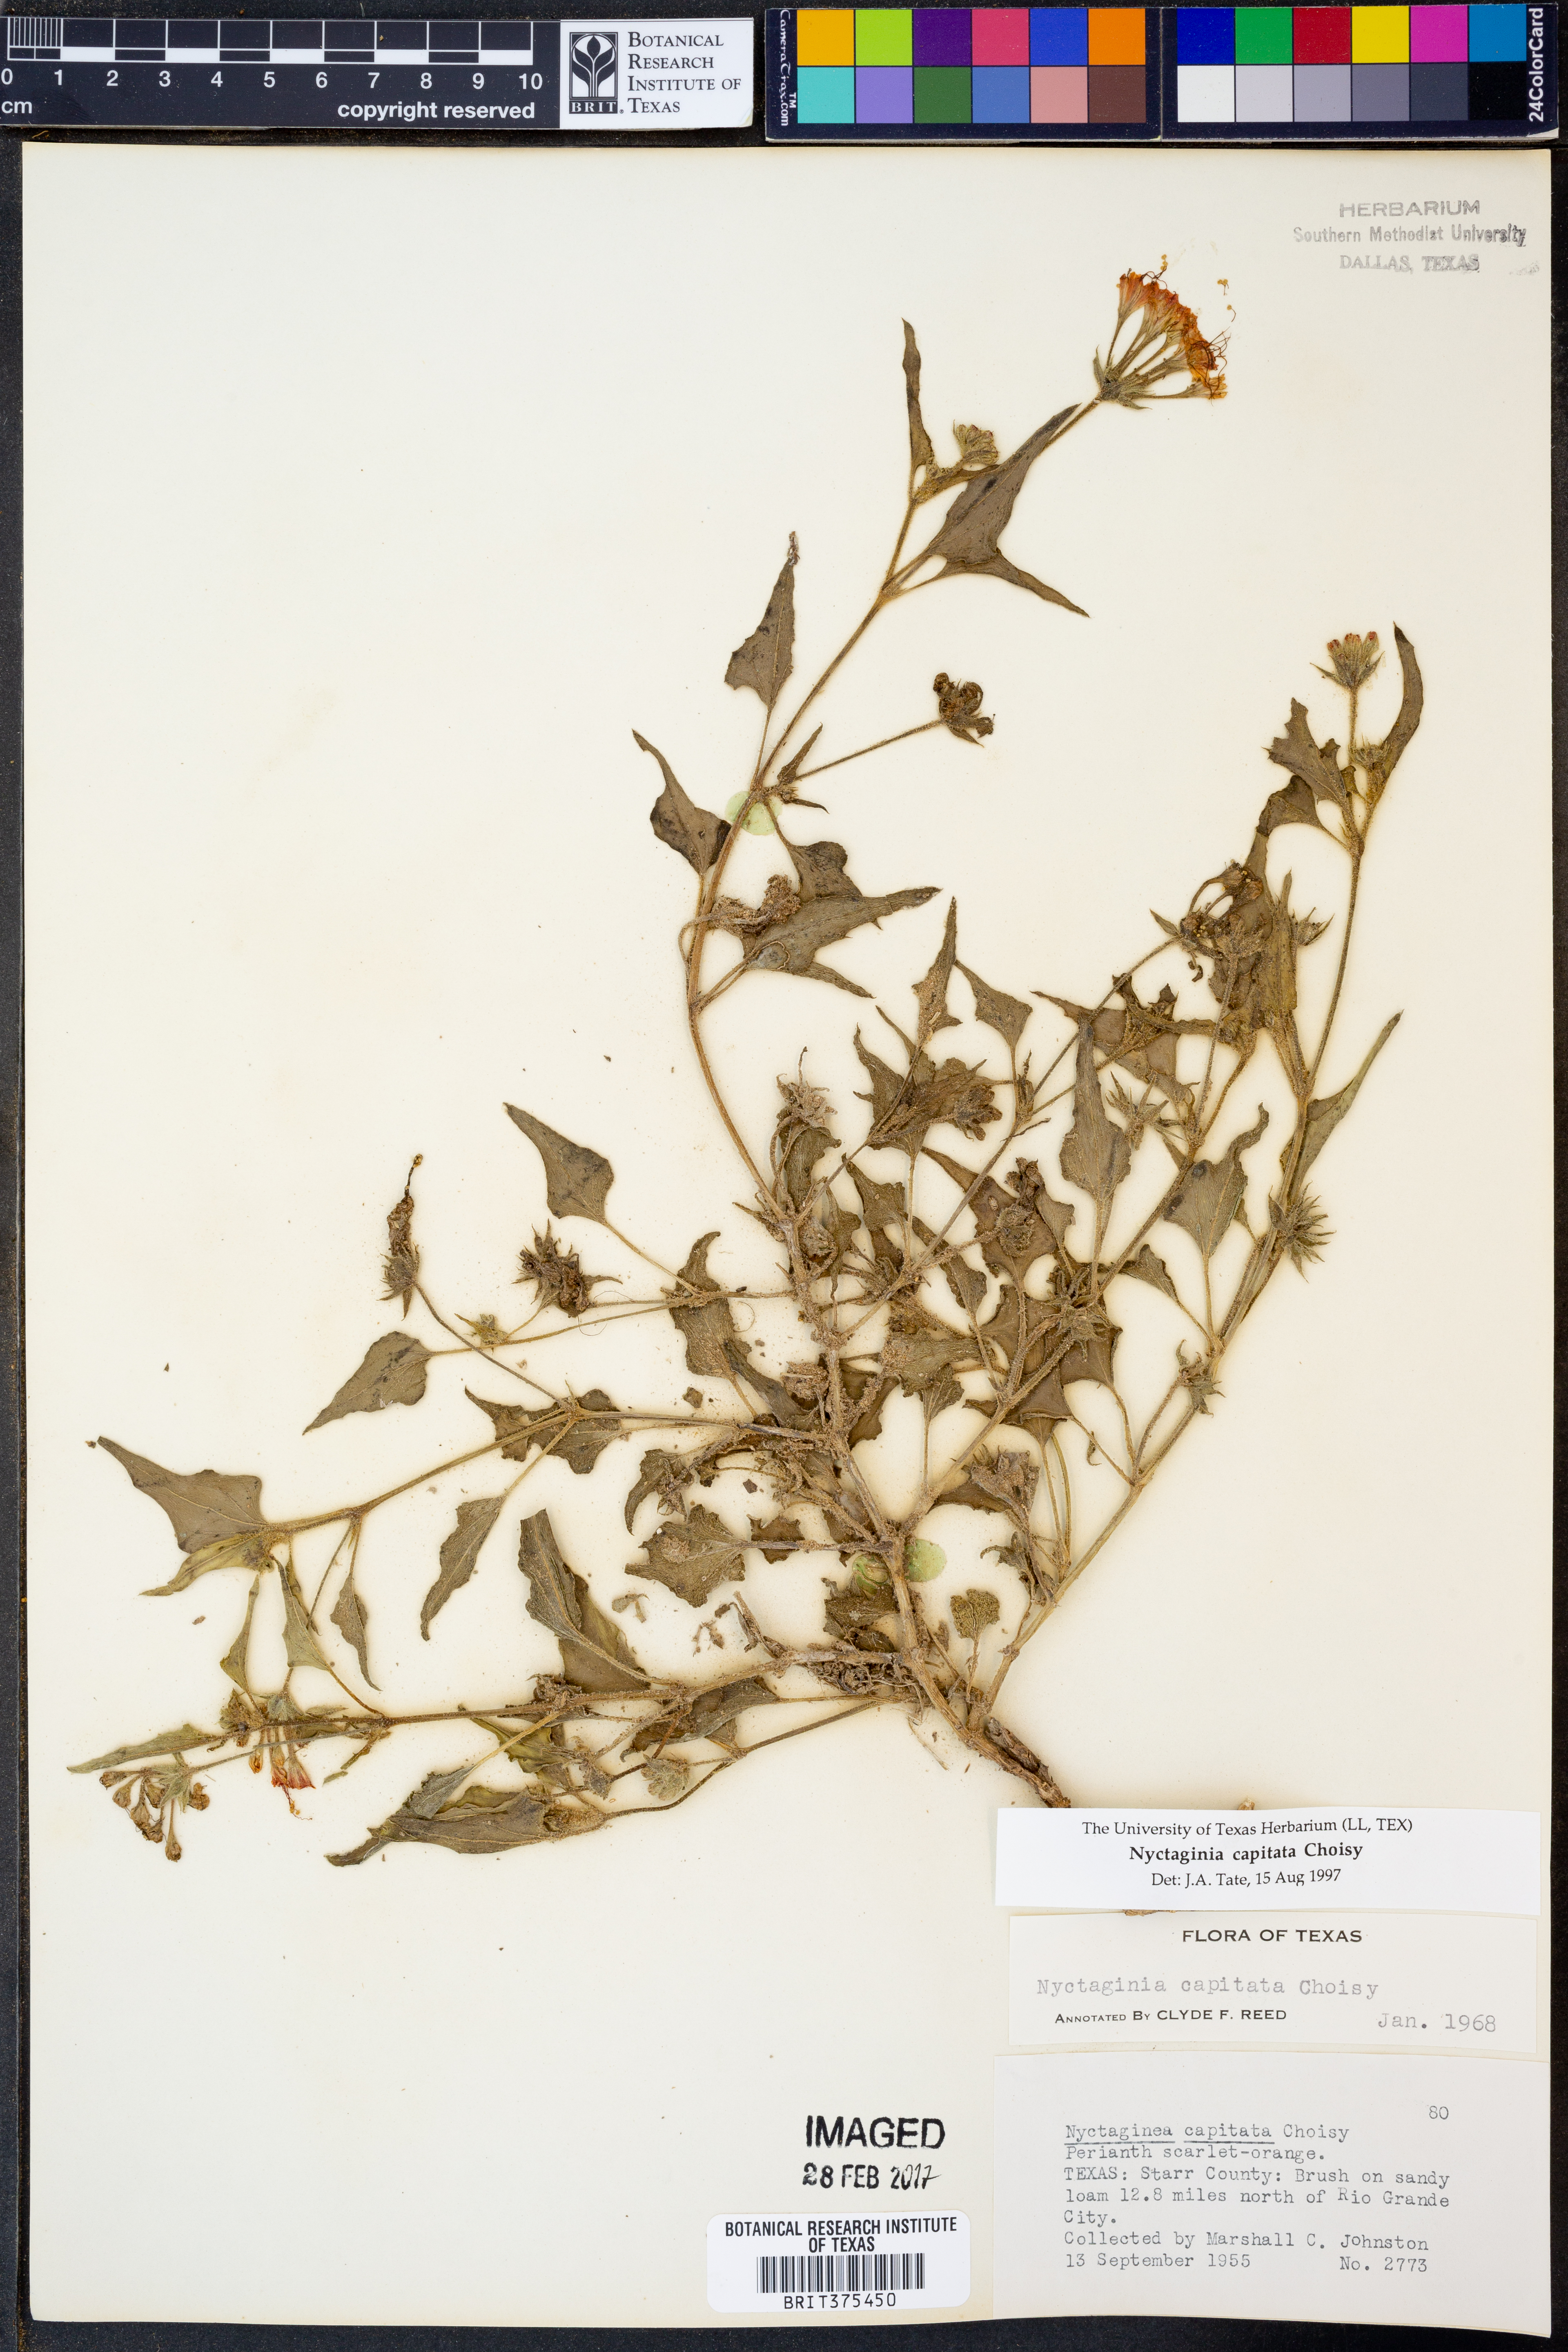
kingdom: Plantae
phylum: Tracheophyta
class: Magnoliopsida
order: Caryophyllales
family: Nyctaginaceae
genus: Nyctaginia
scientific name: Nyctaginia capitata
